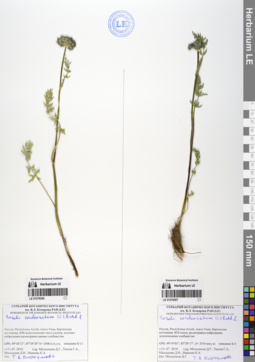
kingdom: Plantae
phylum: Tracheophyta
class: Magnoliopsida
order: Apiales
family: Apiaceae
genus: Seseli
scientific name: Seseli condensatum
